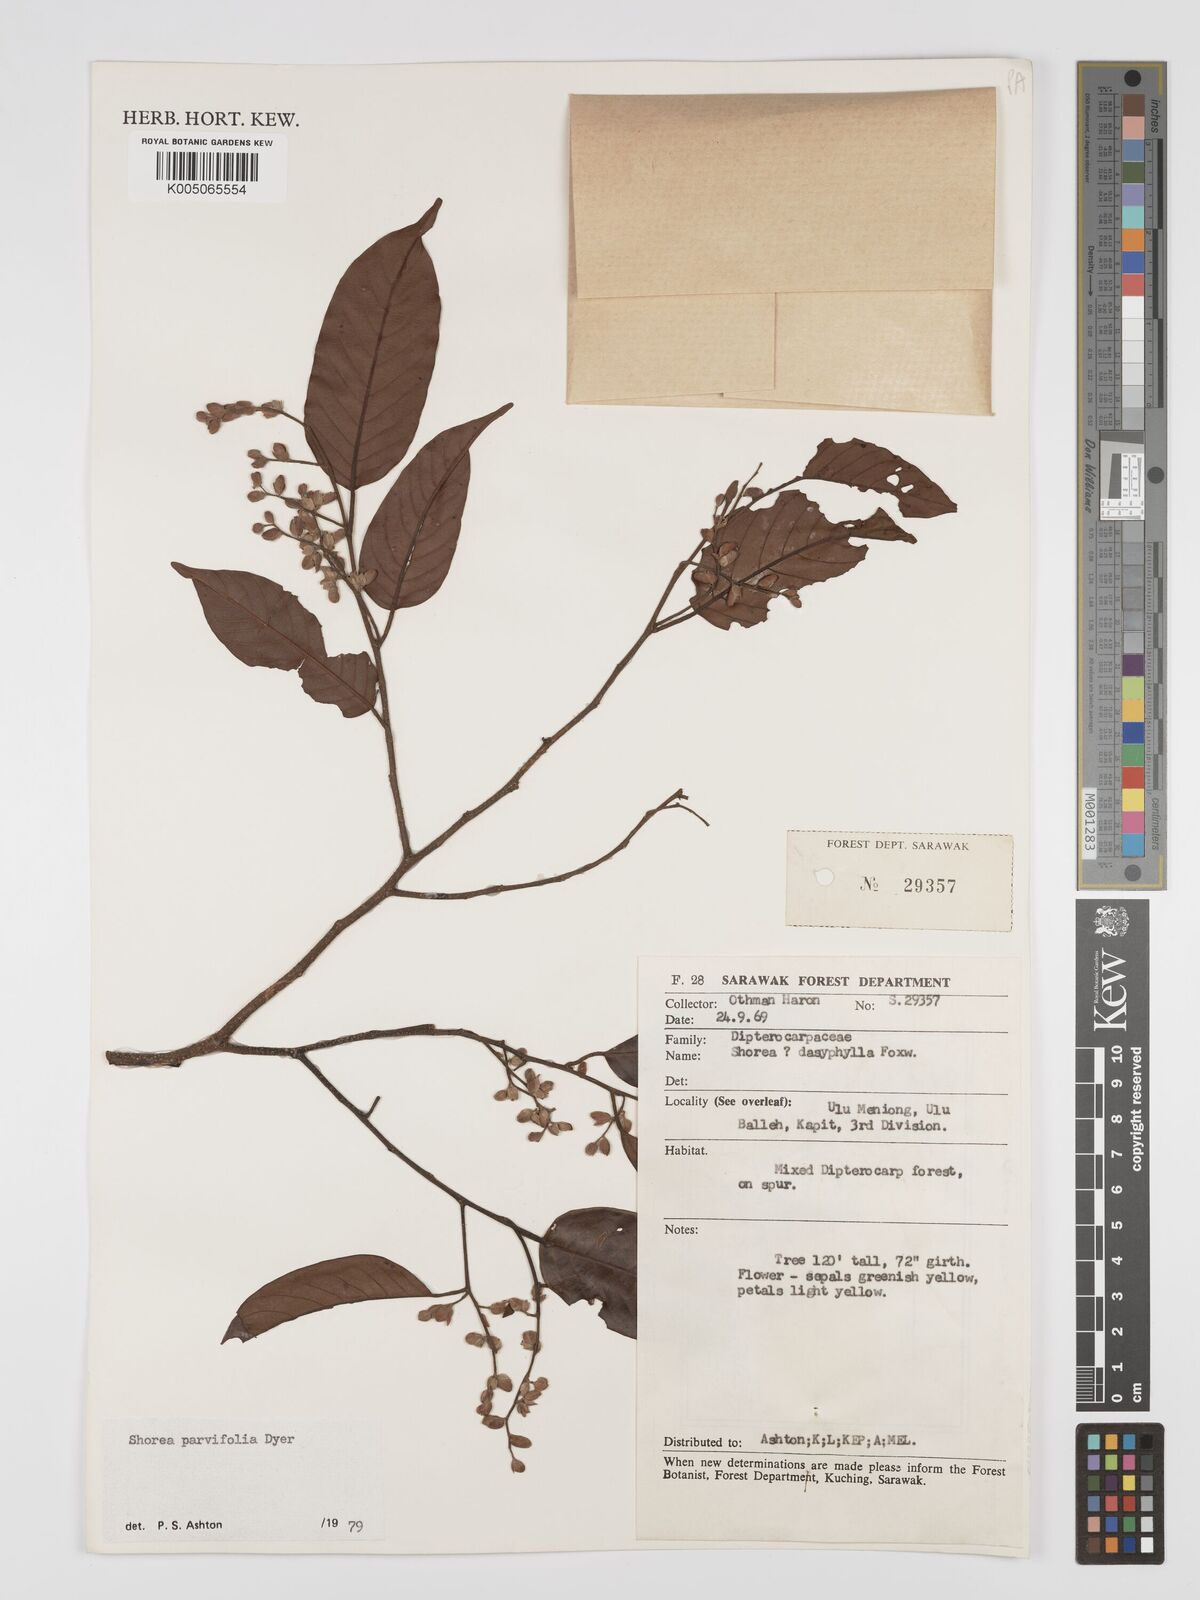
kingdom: Plantae
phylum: Tracheophyta
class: Magnoliopsida
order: Malvales
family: Dipterocarpaceae
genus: Shorea
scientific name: Shorea parvifolia
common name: Light red meranti
